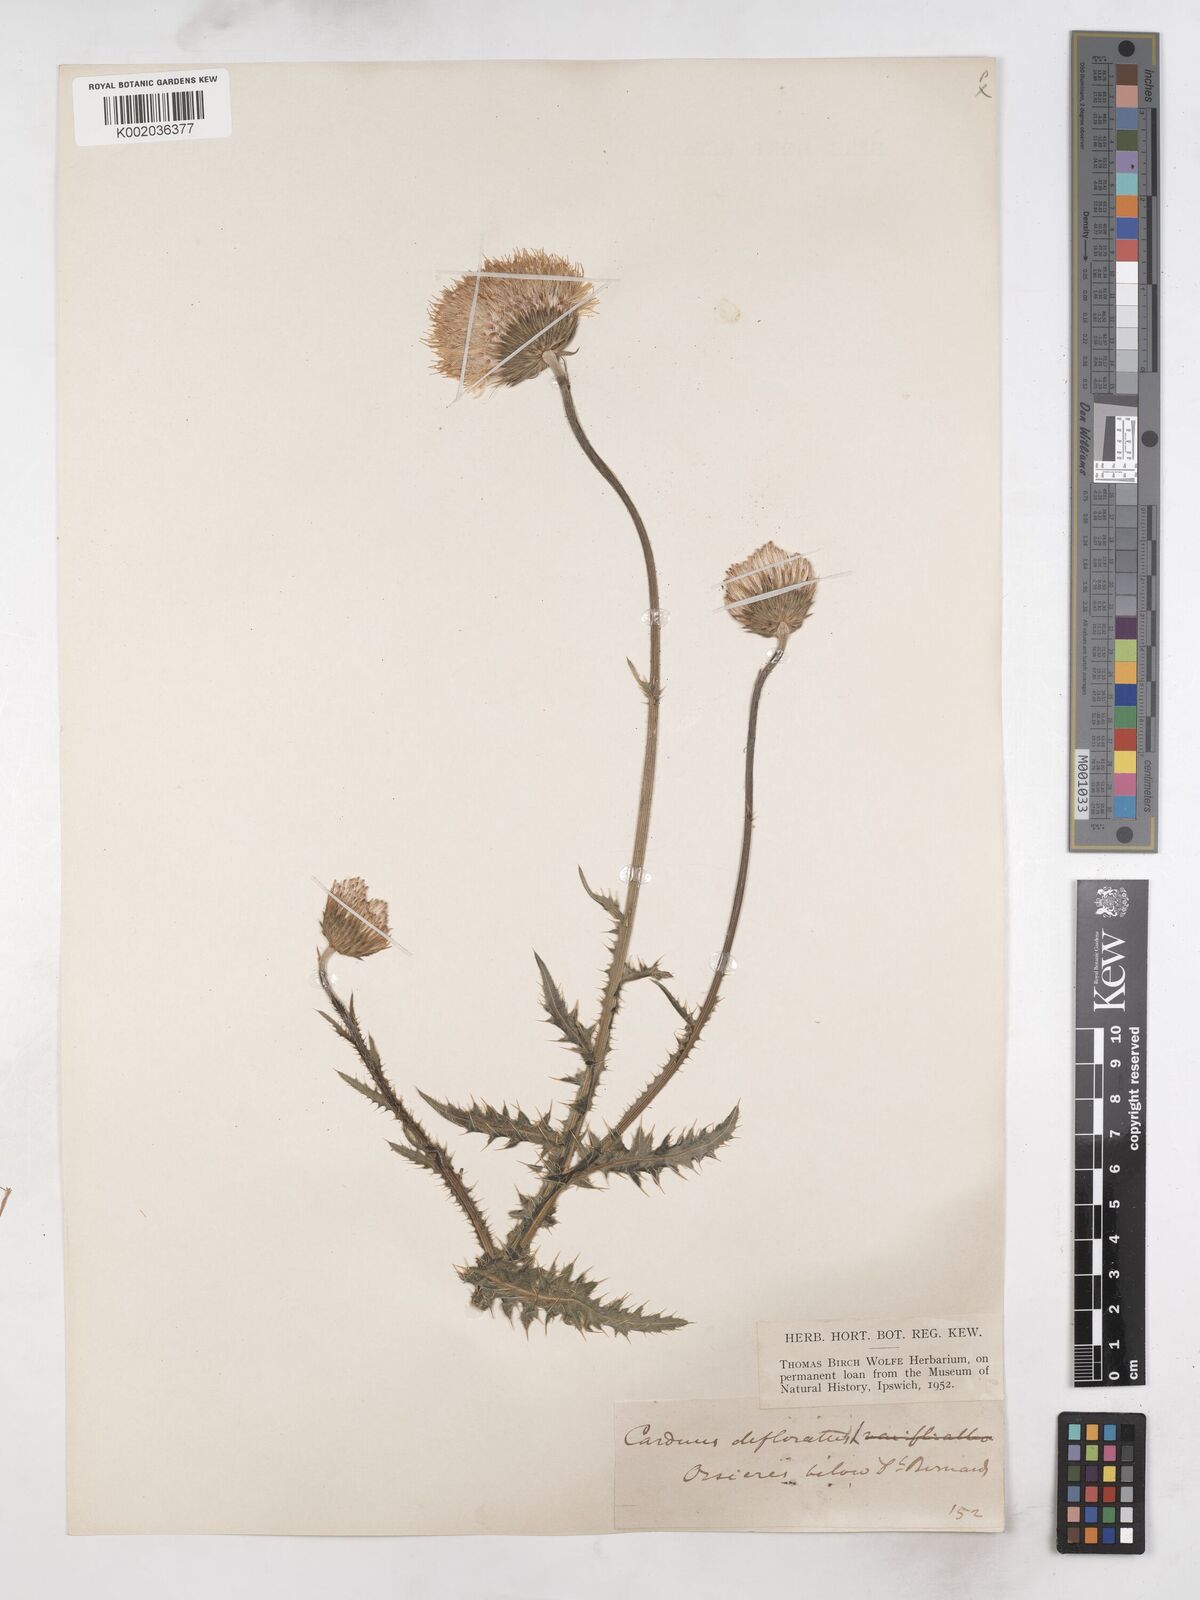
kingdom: Plantae
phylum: Tracheophyta
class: Magnoliopsida
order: Asterales
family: Asteraceae
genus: Carduus
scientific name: Carduus defloratus
